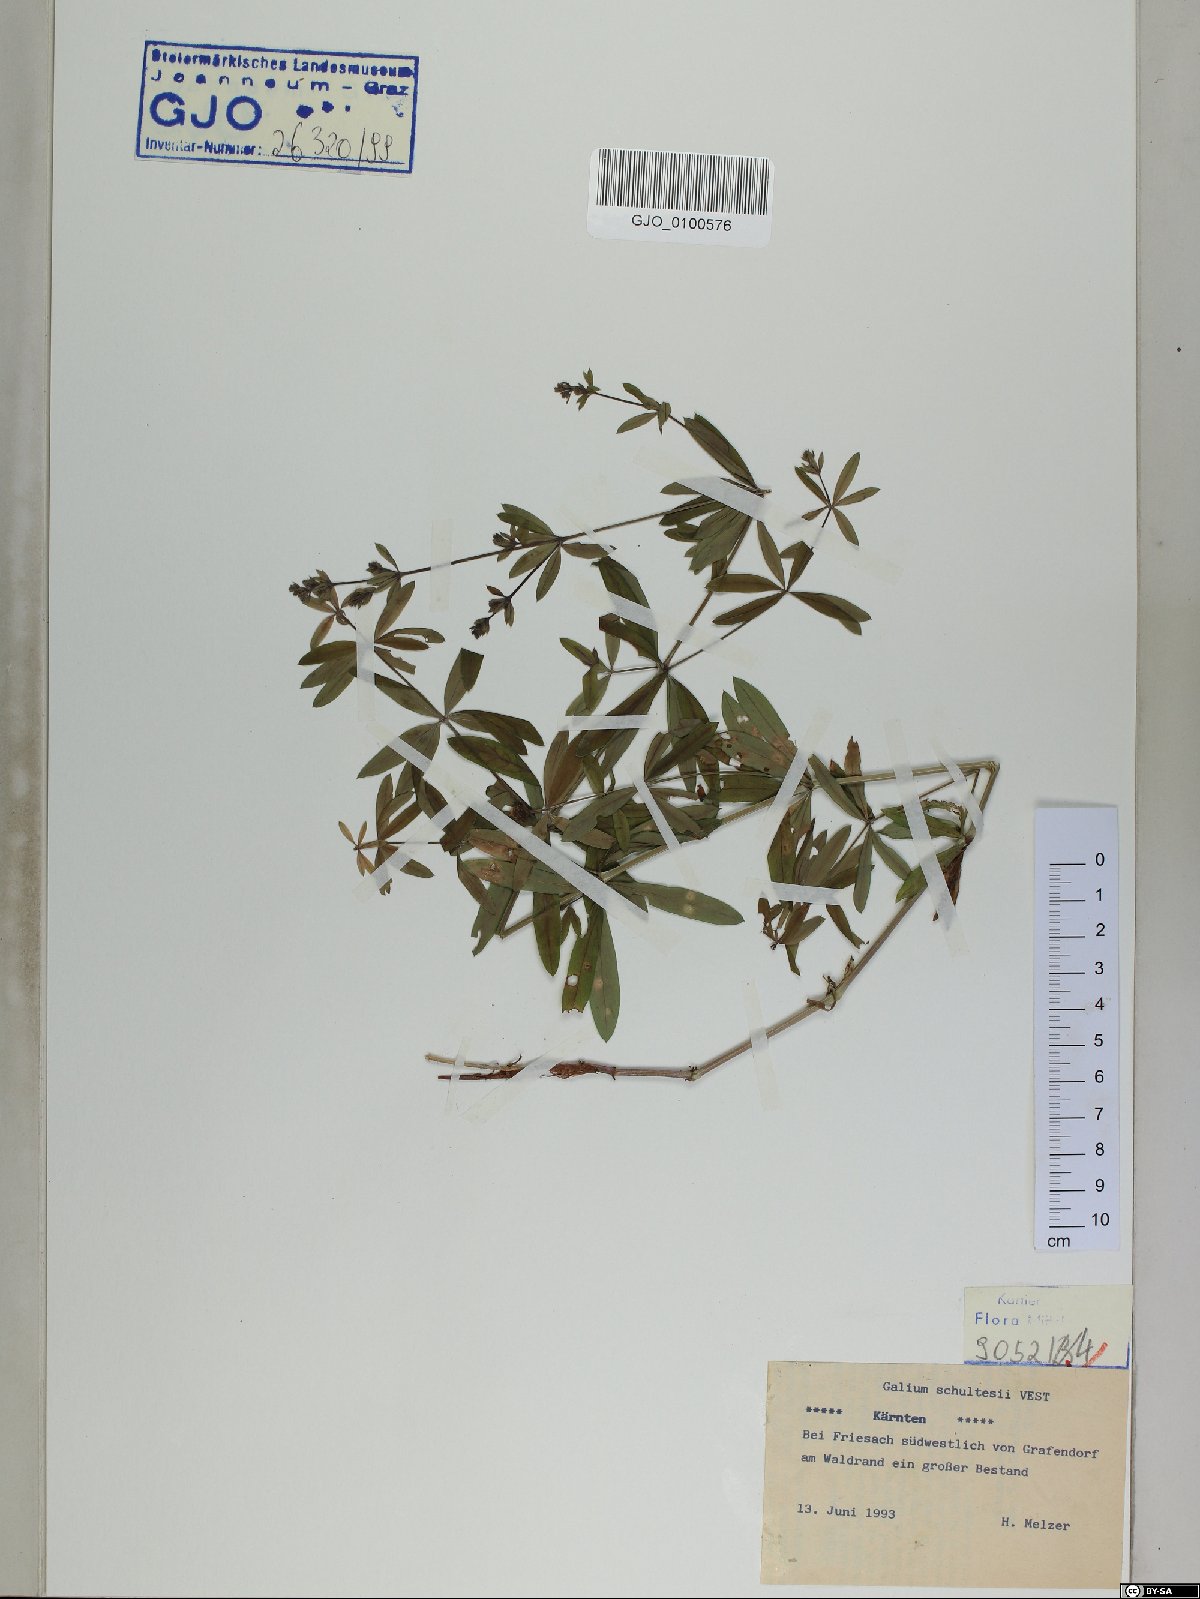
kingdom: Plantae
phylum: Tracheophyta
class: Magnoliopsida
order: Gentianales
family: Rubiaceae
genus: Galium
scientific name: Galium intermedium
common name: Bedstraw
